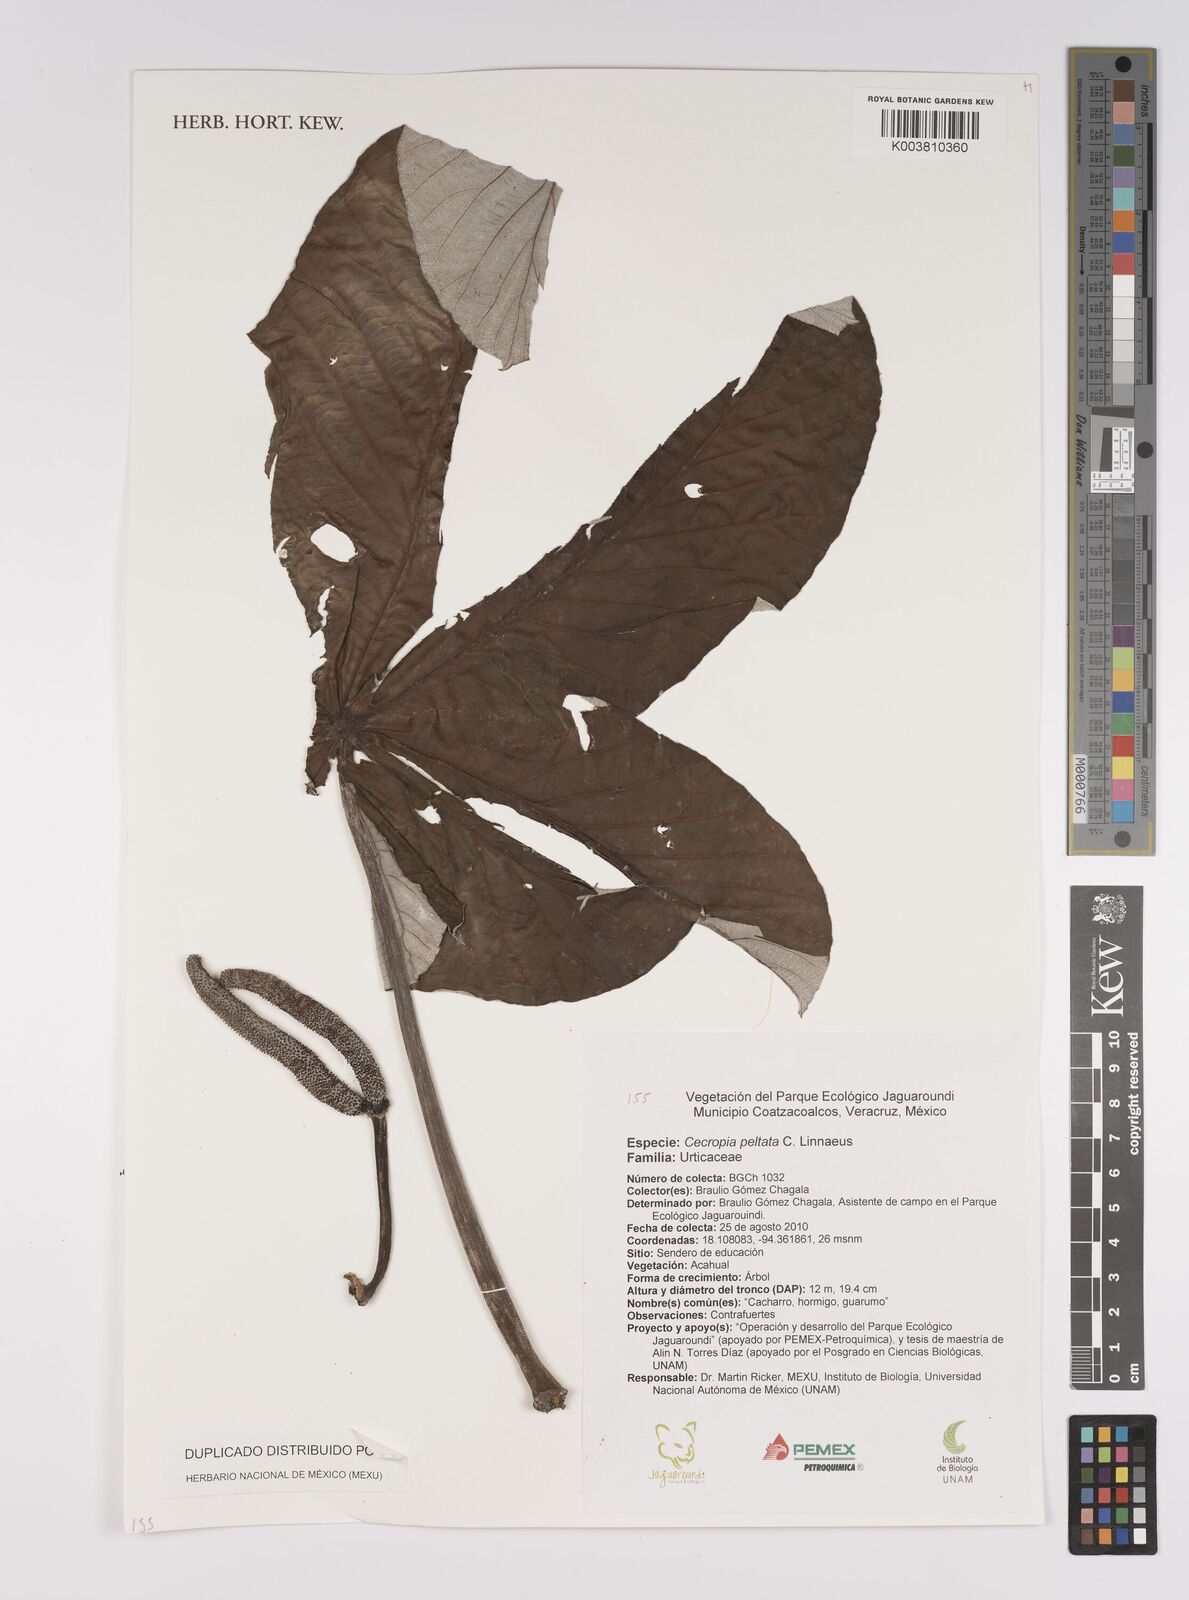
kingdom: Plantae
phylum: Tracheophyta
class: Magnoliopsida
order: Rosales
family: Urticaceae
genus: Cecropia
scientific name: Cecropia peltata
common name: Trumpet-tree
